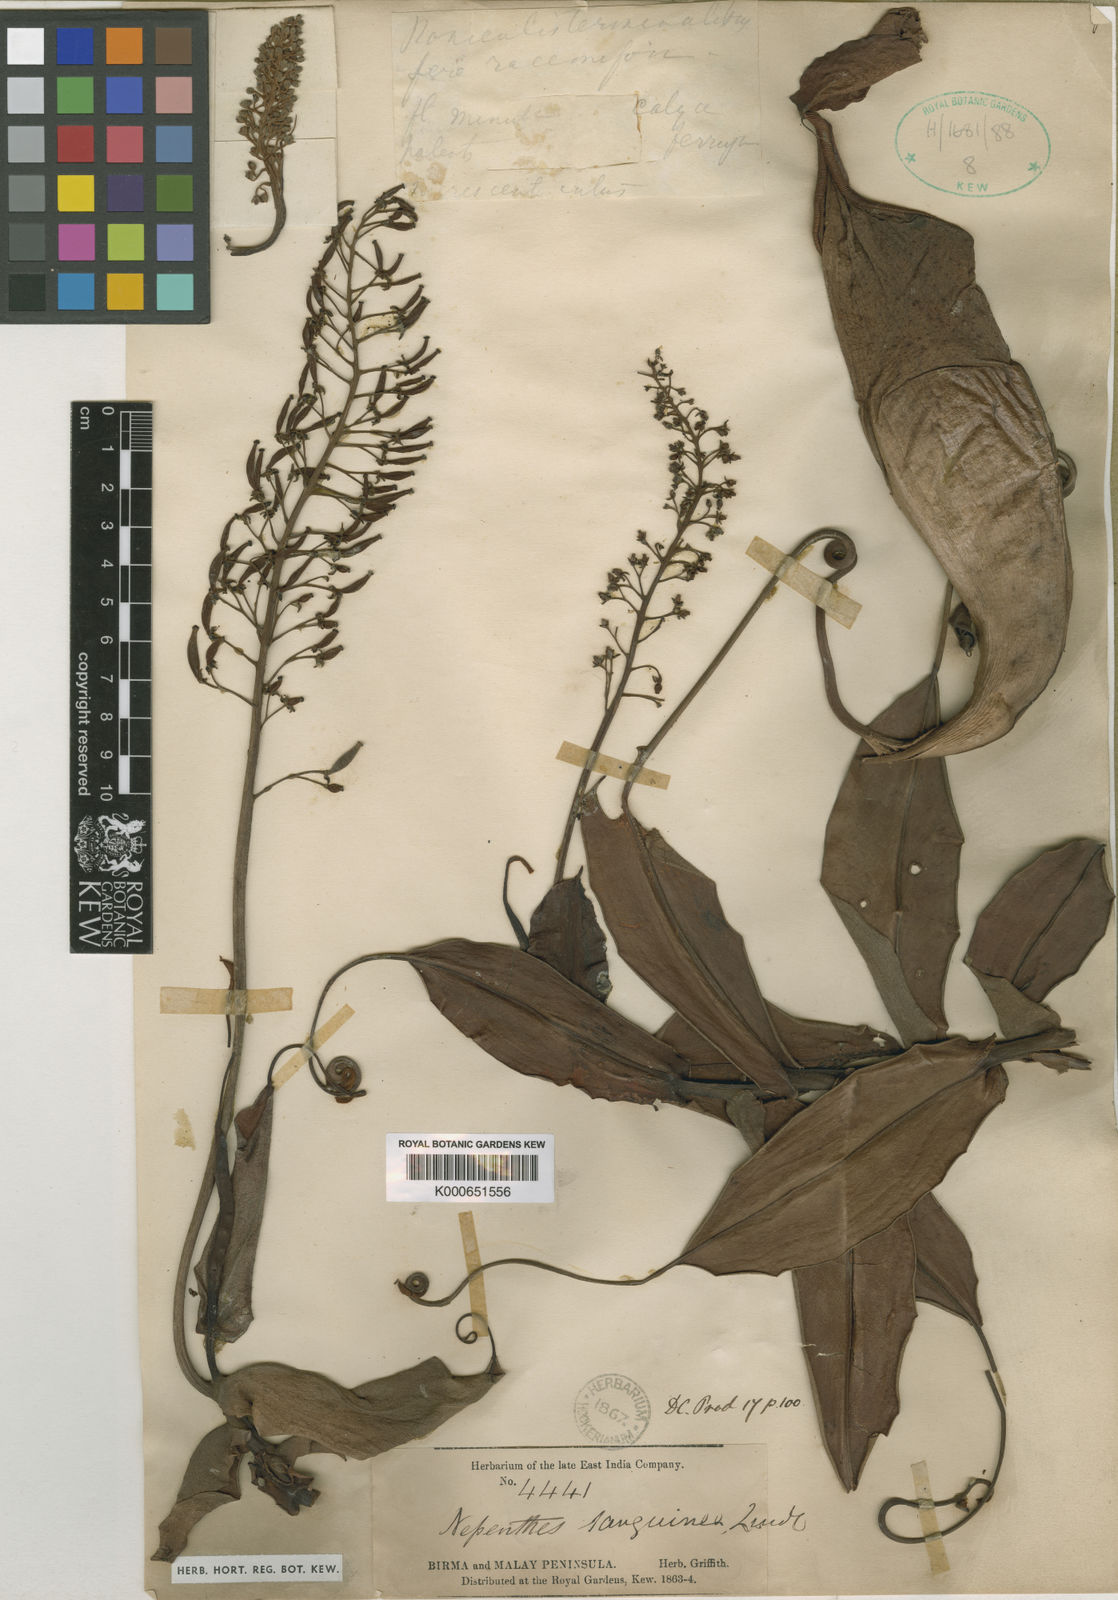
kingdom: Plantae
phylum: Tracheophyta
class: Magnoliopsida
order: Caryophyllales
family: Nepenthaceae
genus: Nepenthes
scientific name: Nepenthes sanguinea
